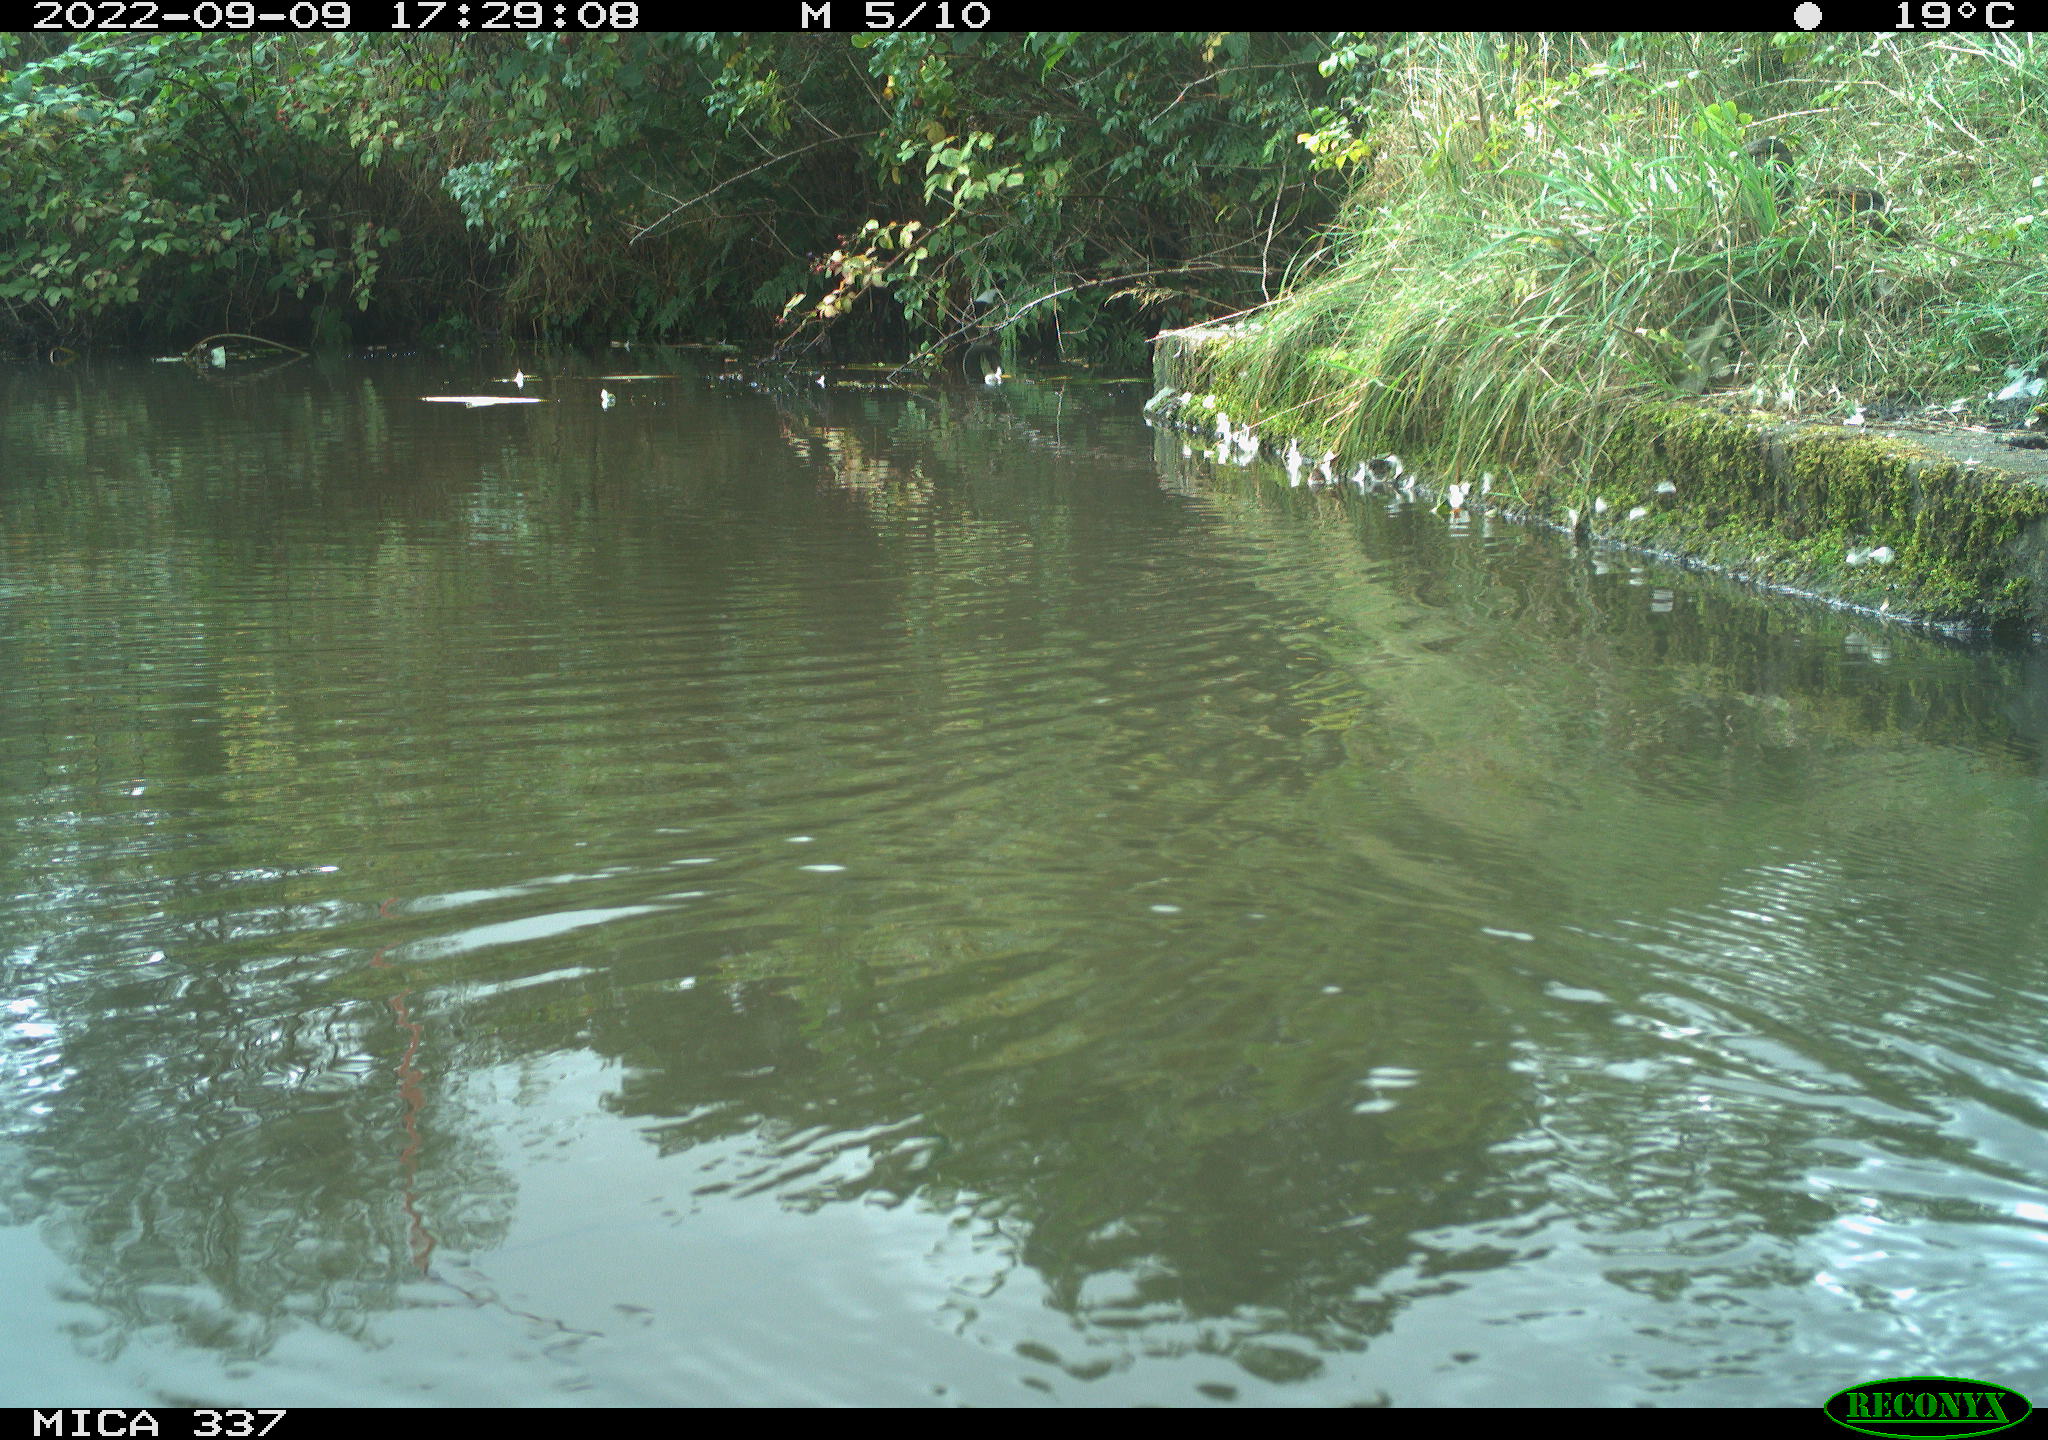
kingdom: Animalia
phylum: Chordata
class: Aves
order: Gruiformes
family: Rallidae
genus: Gallinula
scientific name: Gallinula chloropus
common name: Common moorhen
